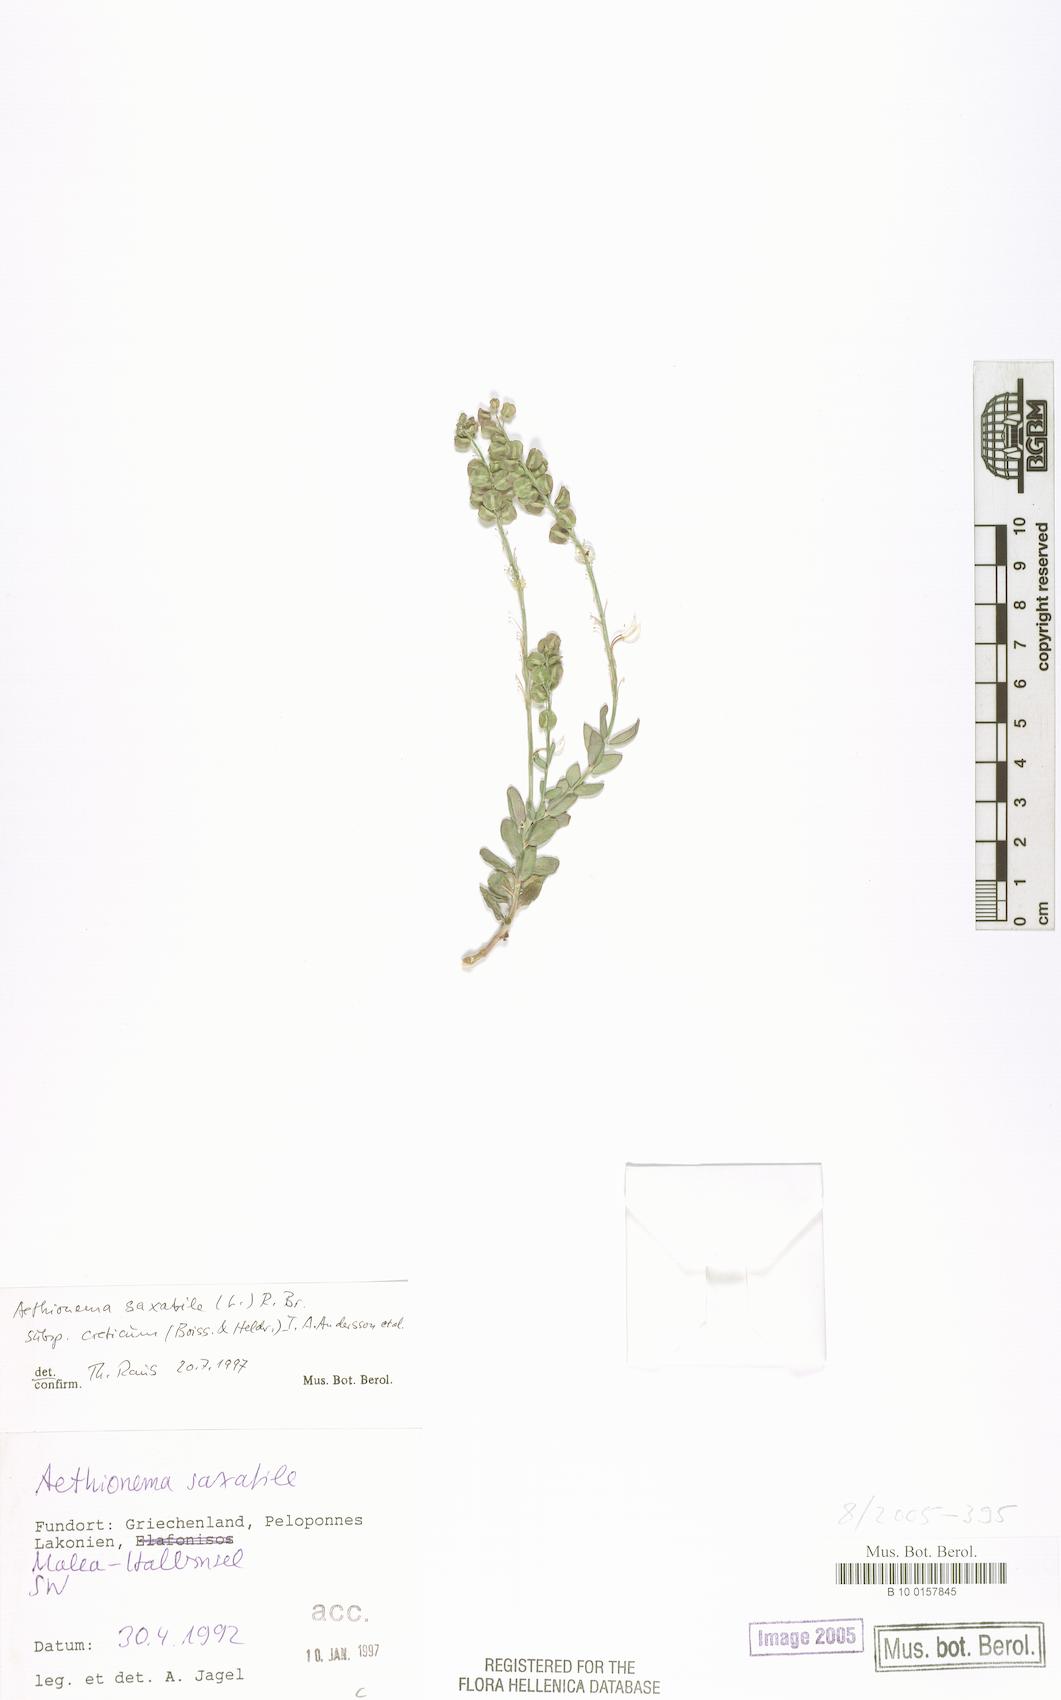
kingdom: Plantae
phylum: Tracheophyta
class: Magnoliopsida
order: Brassicales
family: Brassicaceae
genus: Aethionema
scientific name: Aethionema saxatile
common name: Burnt candytuft
